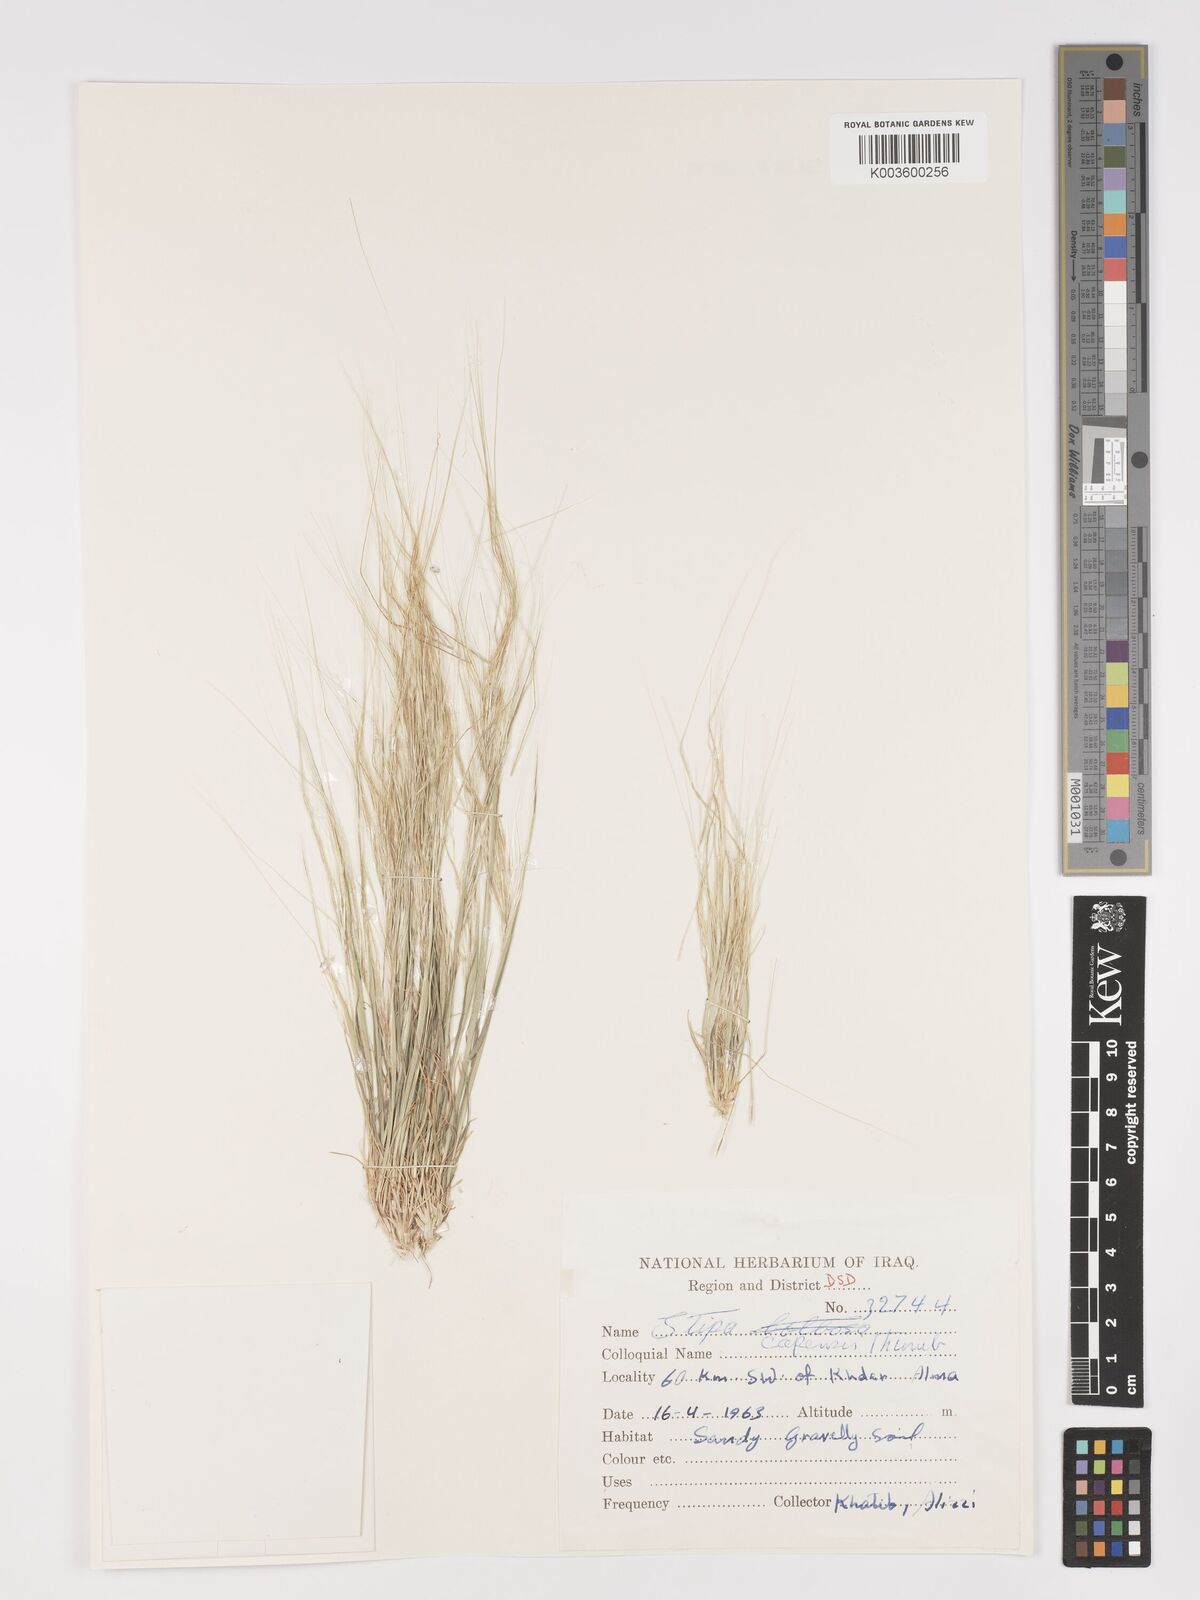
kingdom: Plantae
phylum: Tracheophyta
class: Liliopsida
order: Poales
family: Poaceae
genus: Stipellula
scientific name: Stipellula capensis
